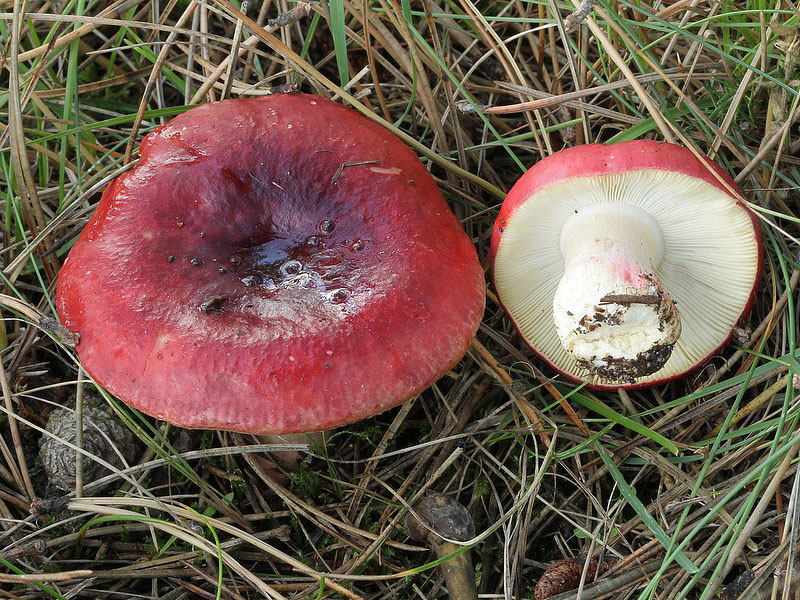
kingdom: Fungi
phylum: Basidiomycota
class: Agaricomycetes
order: Russulales
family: Russulaceae
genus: Russula
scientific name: Russula xerampelina
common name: hummer-skørhat
